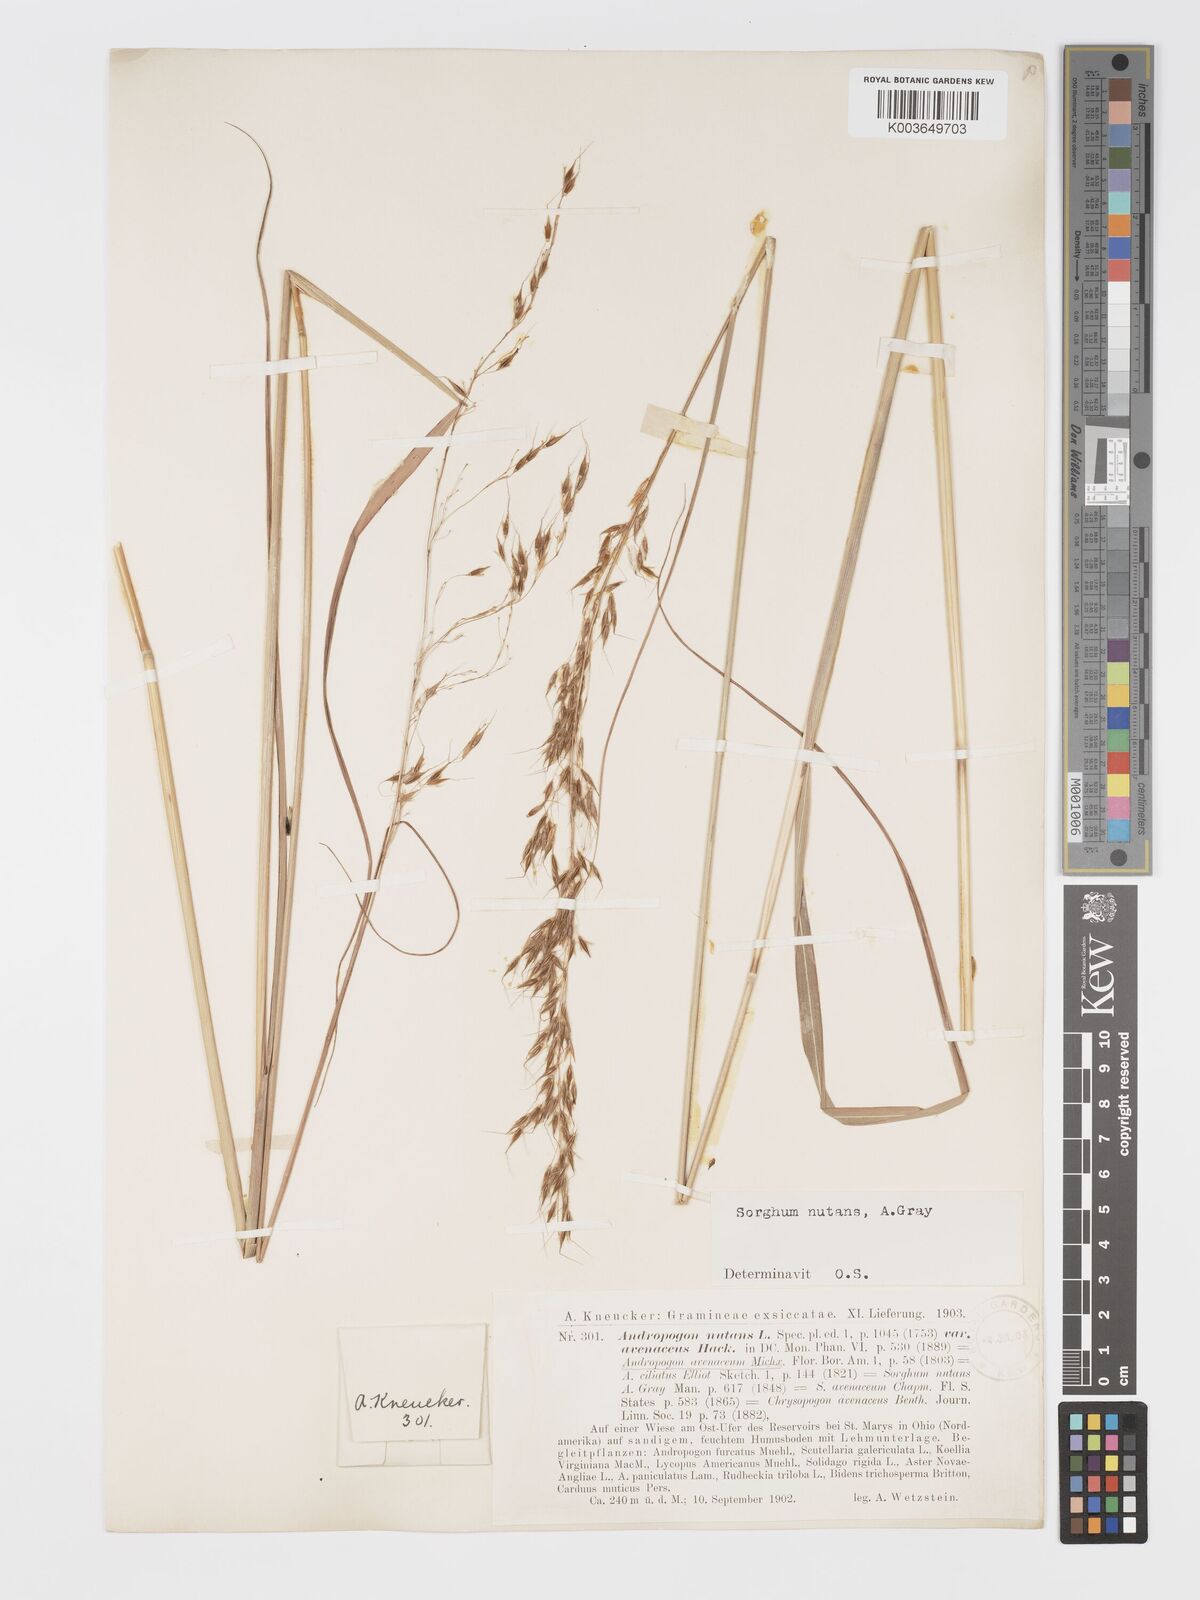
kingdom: Plantae
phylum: Tracheophyta
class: Liliopsida
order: Poales
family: Poaceae
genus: Sorghastrum
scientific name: Sorghastrum nutans
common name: Indian grass
